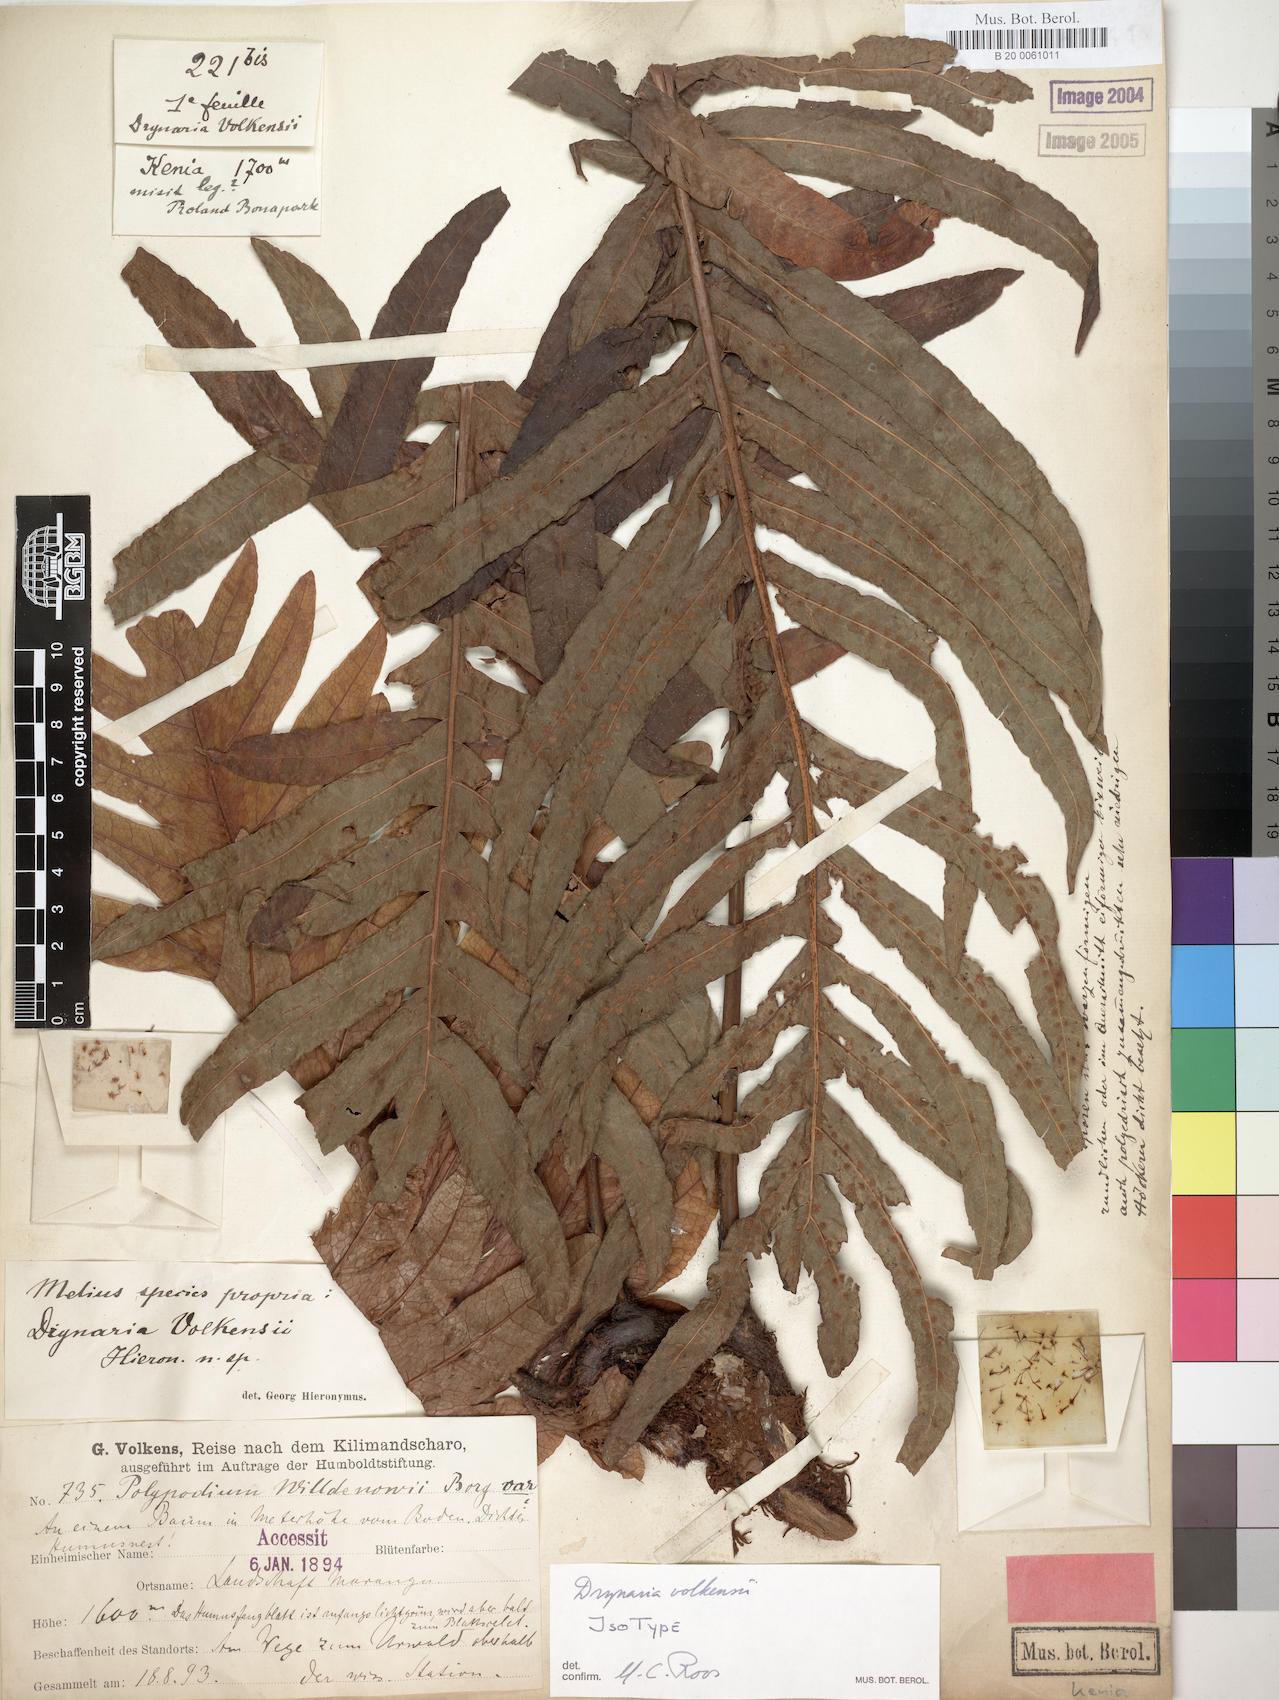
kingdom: Plantae
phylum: Tracheophyta
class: Polypodiopsida
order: Polypodiales
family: Polypodiaceae
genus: Drynaria
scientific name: Drynaria volkensii
